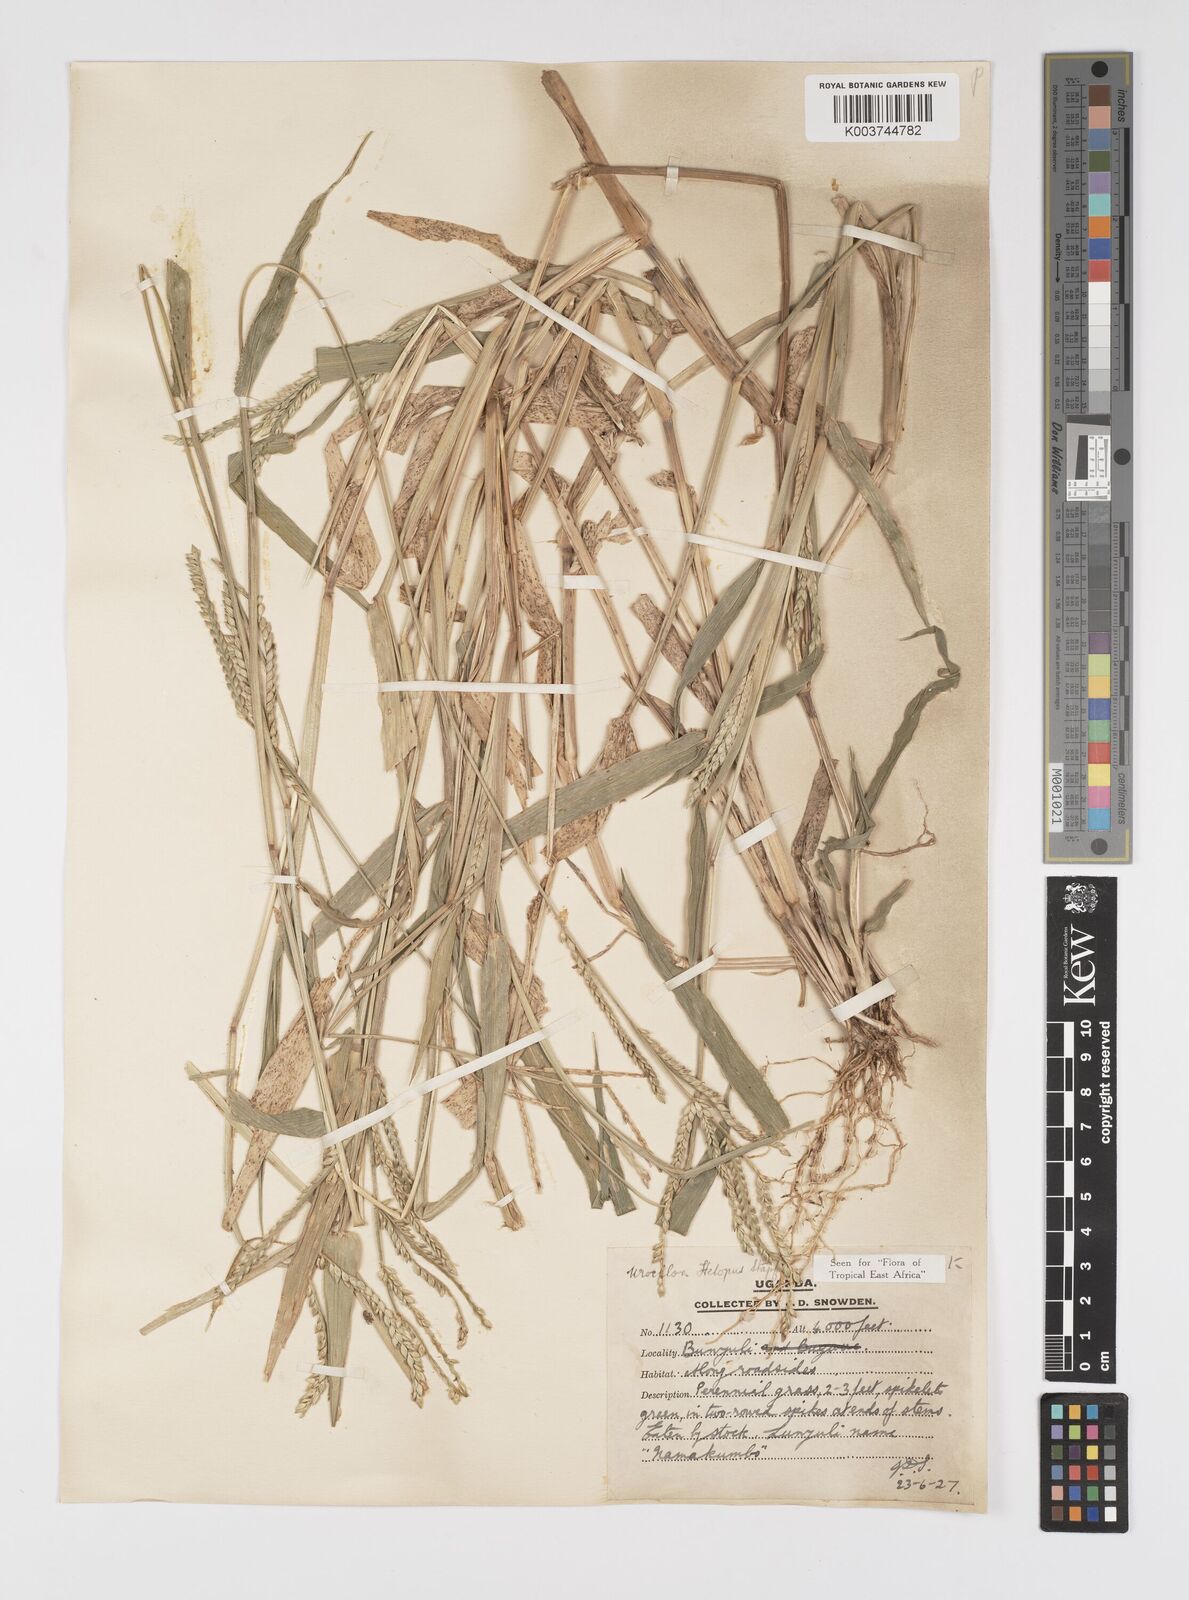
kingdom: Plantae
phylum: Tracheophyta
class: Liliopsida
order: Poales
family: Poaceae
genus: Urochloa
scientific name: Urochloa panicoides
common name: Sharp-flowered signal-grass
